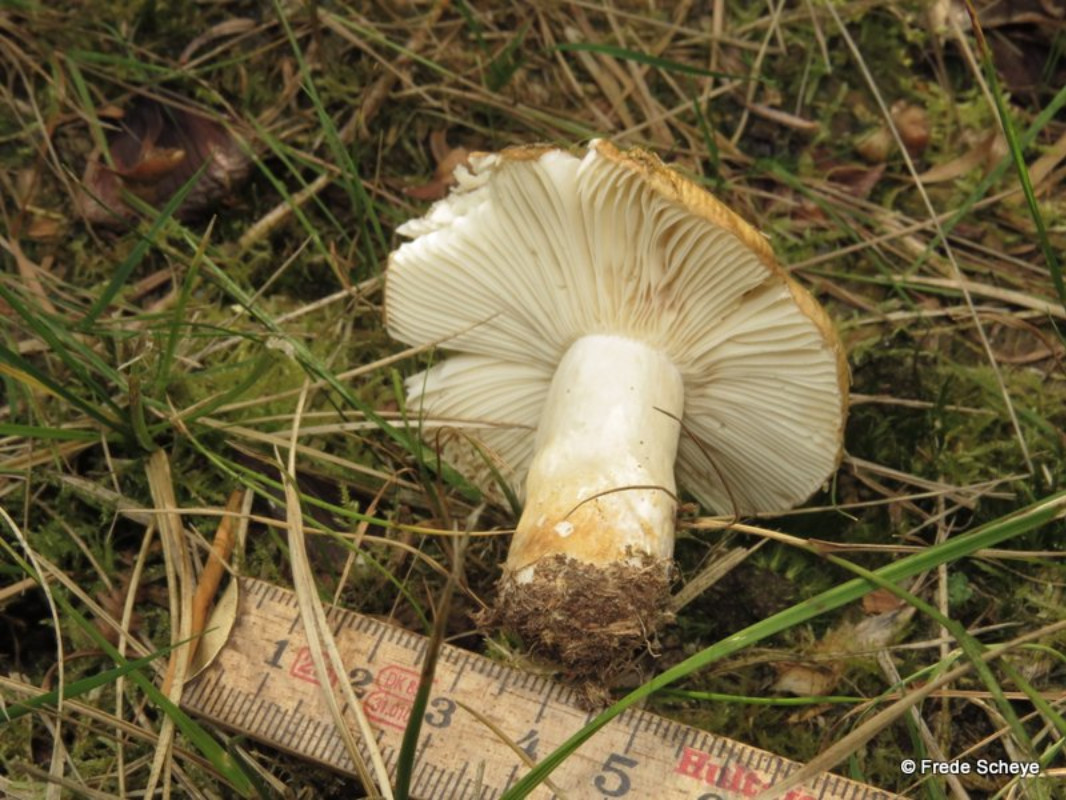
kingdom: Fungi
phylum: Basidiomycota
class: Agaricomycetes
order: Russulales
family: Russulaceae
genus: Russula
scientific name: Russula ochroleuca
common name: okkergul skørhat
